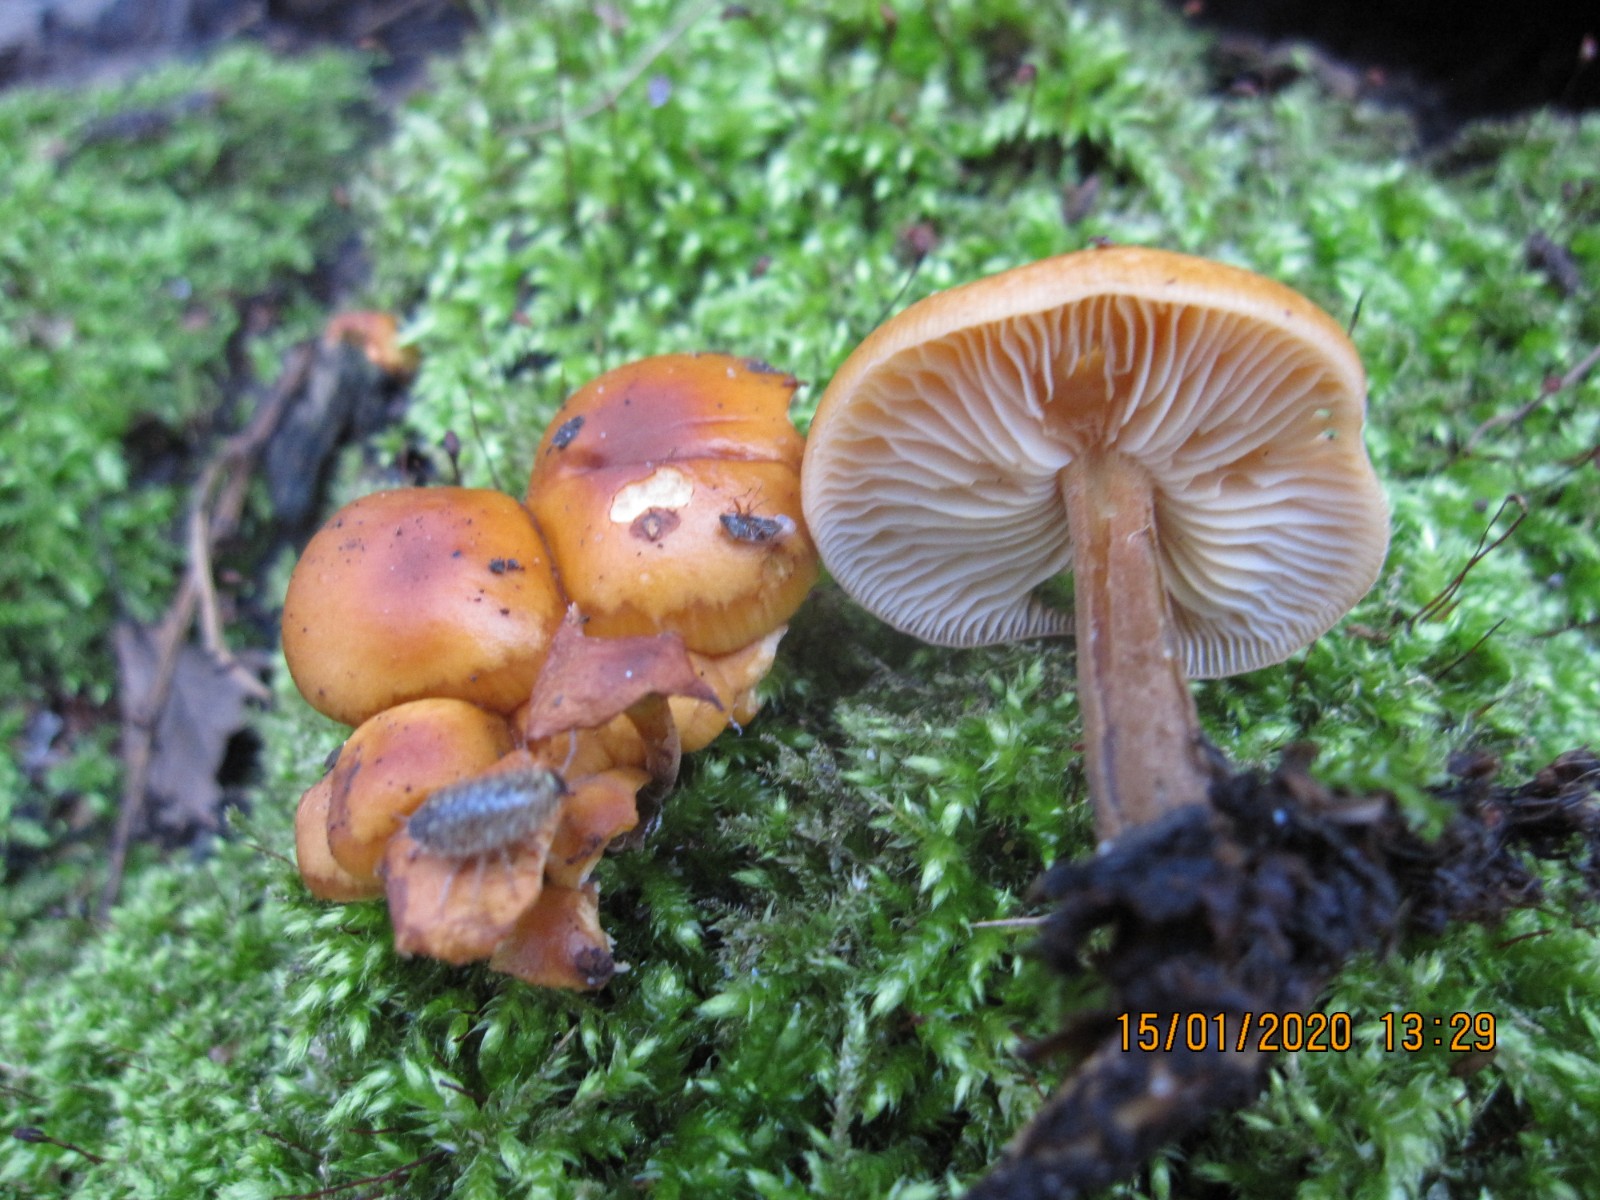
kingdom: Fungi
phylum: Basidiomycota
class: Agaricomycetes
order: Agaricales
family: Physalacriaceae
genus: Flammulina
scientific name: Flammulina velutipes
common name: gul fløjlsfod
